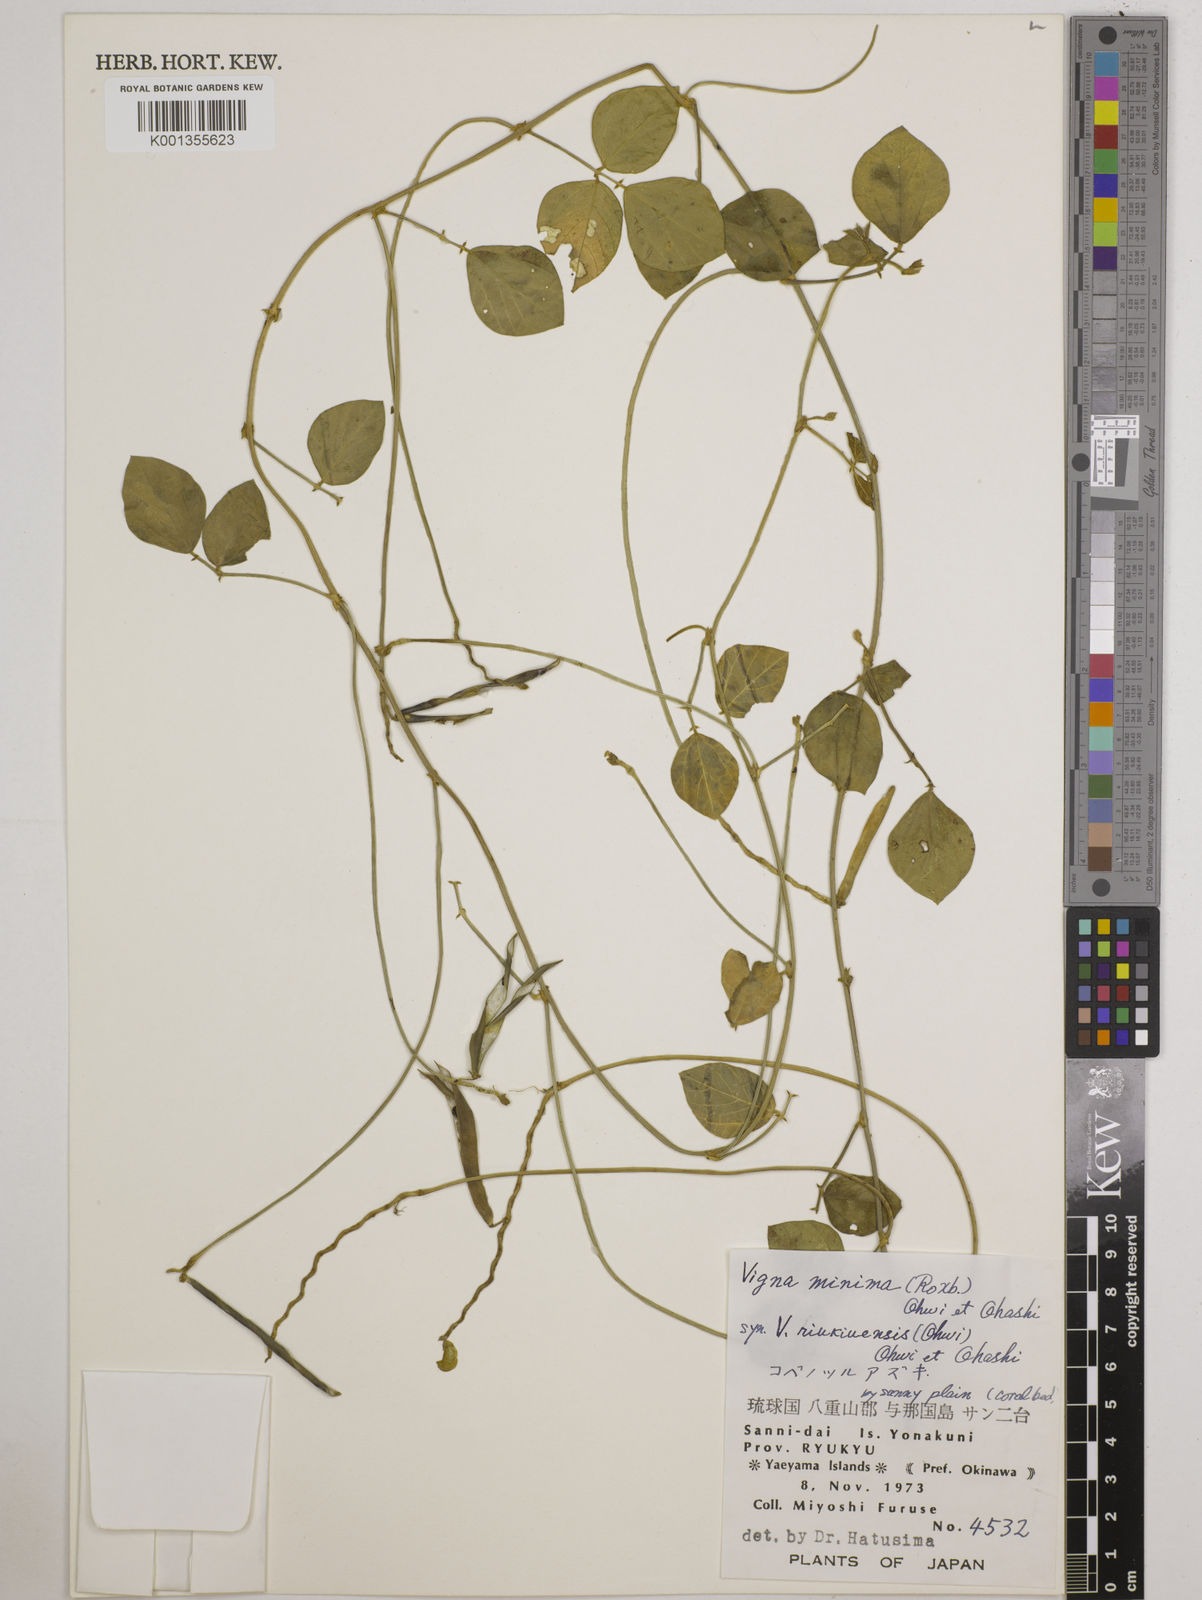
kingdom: Plantae
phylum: Tracheophyta
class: Magnoliopsida
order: Fabales
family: Fabaceae
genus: Vigna
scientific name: Vigna minima
